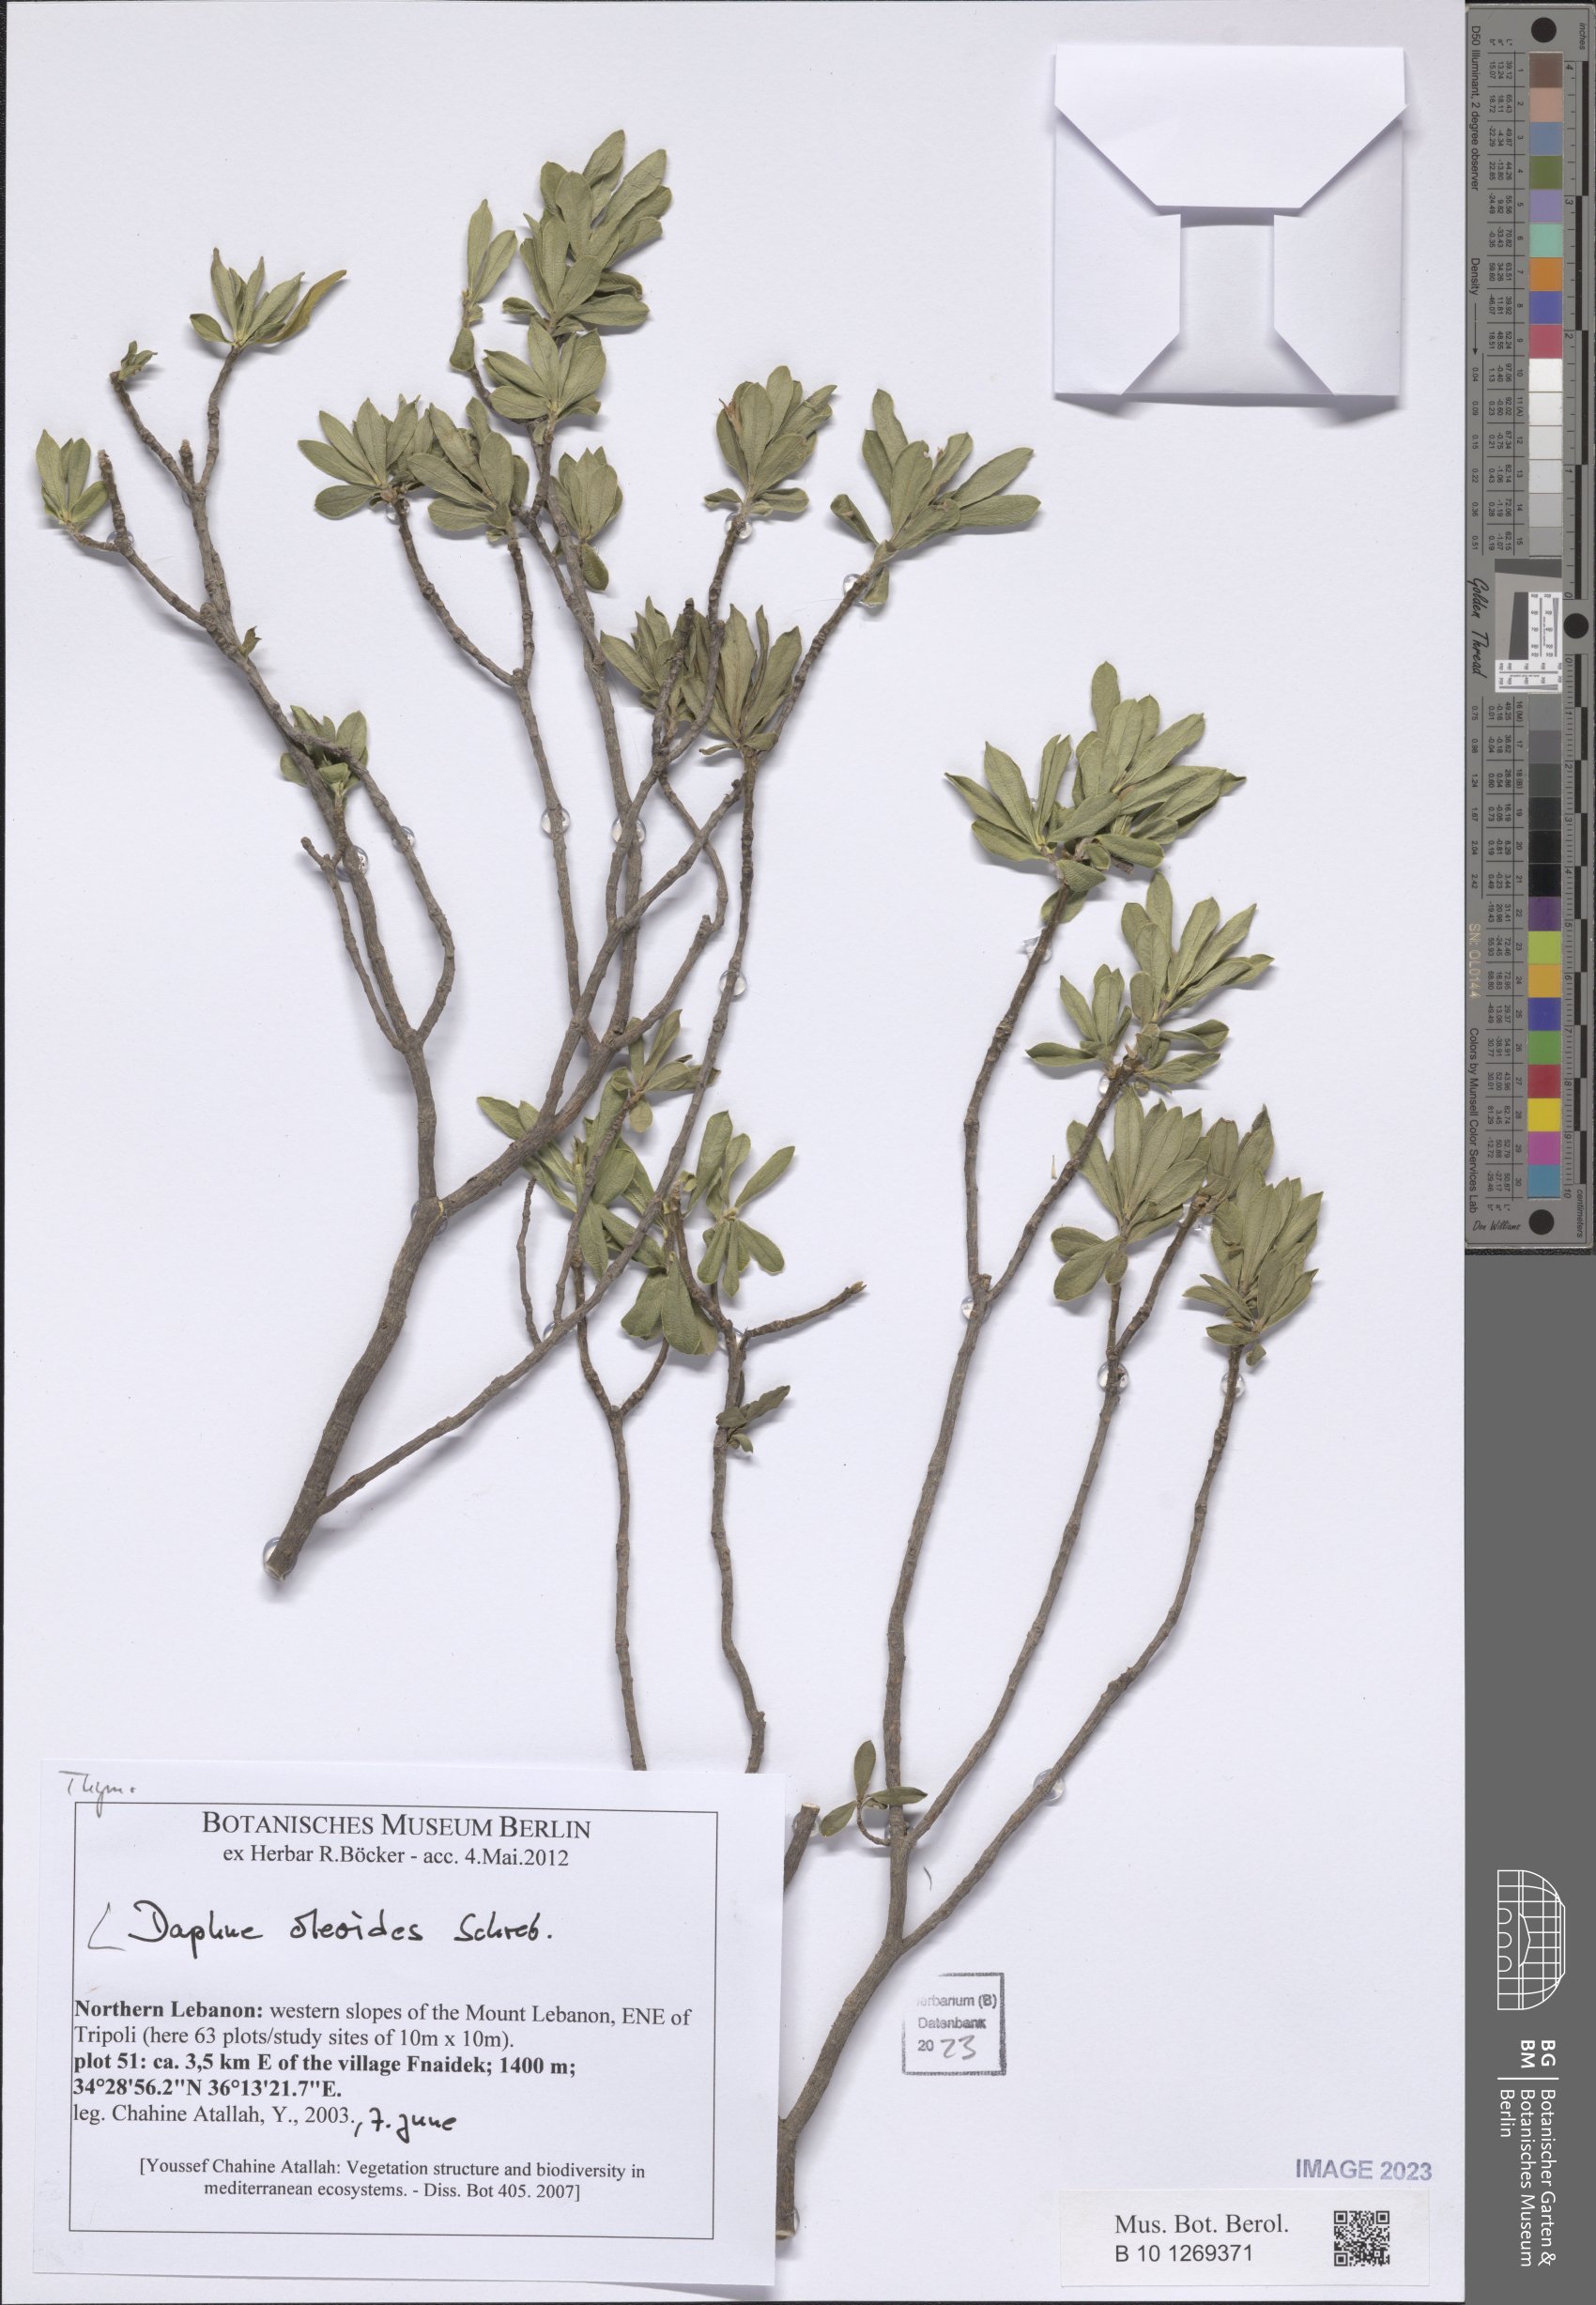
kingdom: Plantae
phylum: Tracheophyta
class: Magnoliopsida
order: Malvales
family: Thymelaeaceae
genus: Daphne
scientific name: Daphne oleoides
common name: Spurge-olive
